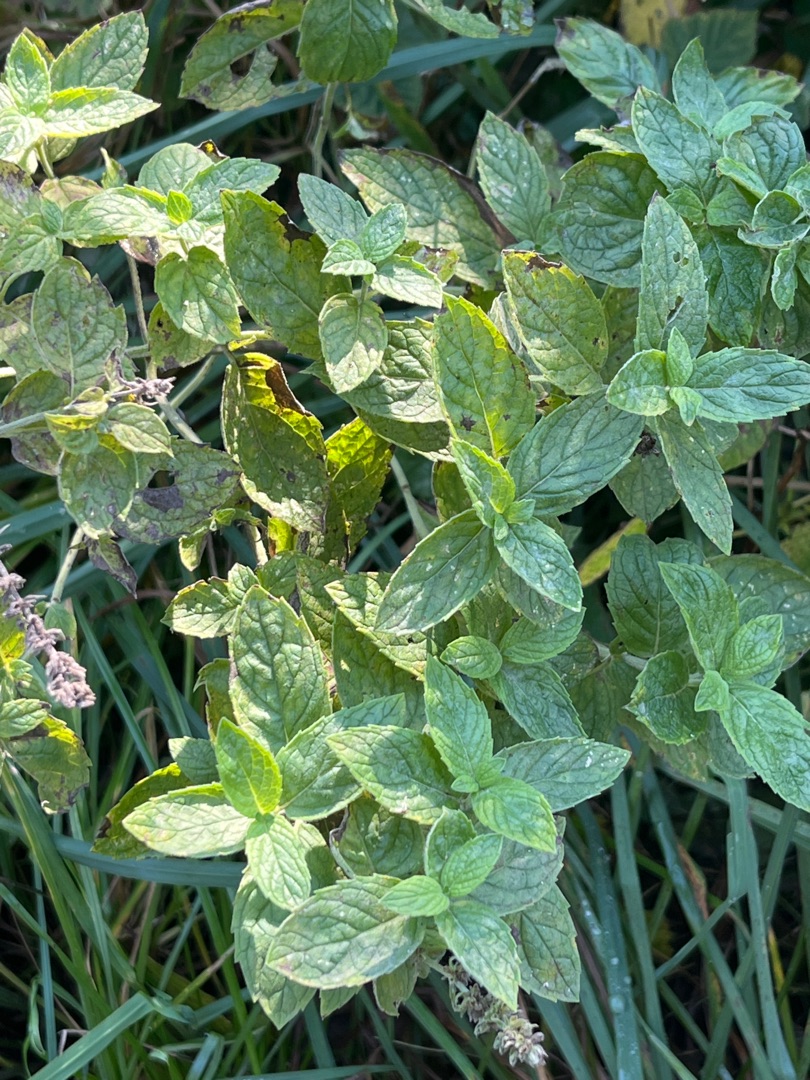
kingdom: Plantae
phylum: Tracheophyta
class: Magnoliopsida
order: Lamiales
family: Lamiaceae
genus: Mentha
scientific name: Mentha rotundifolia
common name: Grå mynte × rundbladet mynte
